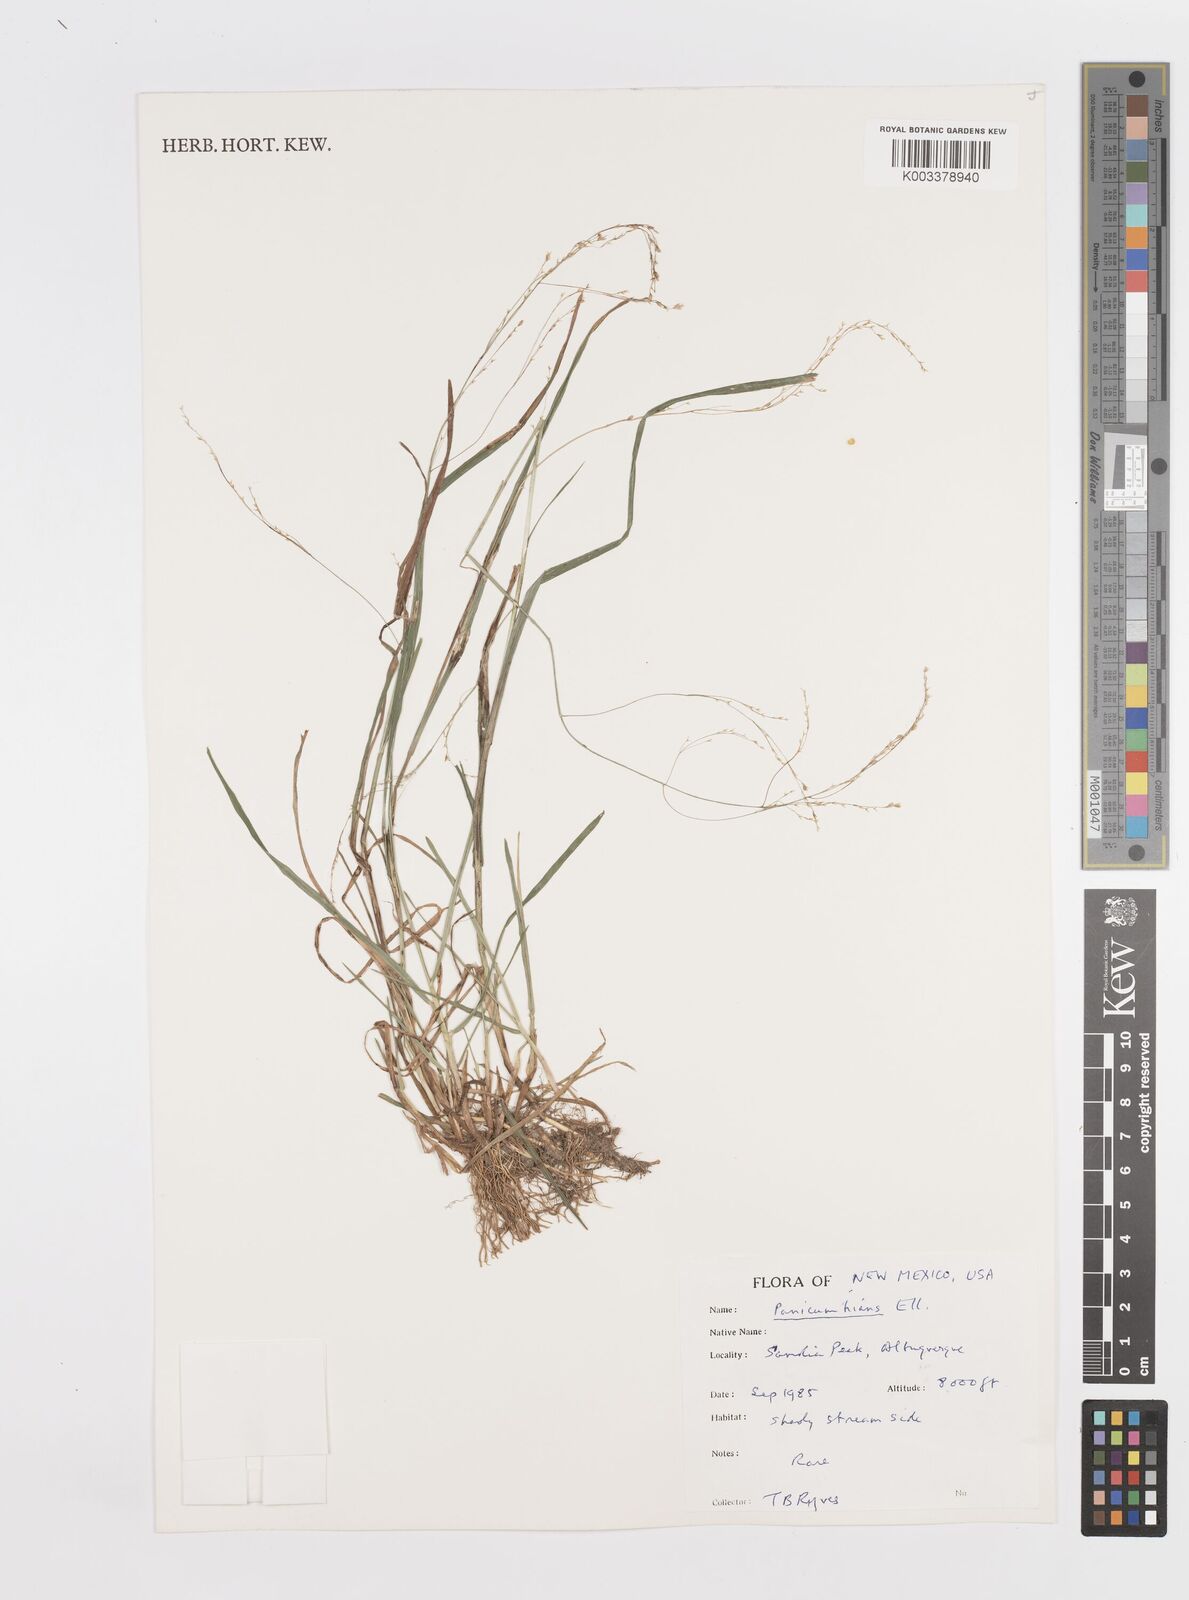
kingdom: Plantae
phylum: Tracheophyta
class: Liliopsida
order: Poales
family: Poaceae
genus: Steinchisma
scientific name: Steinchisma hians
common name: Gaping panic grass
